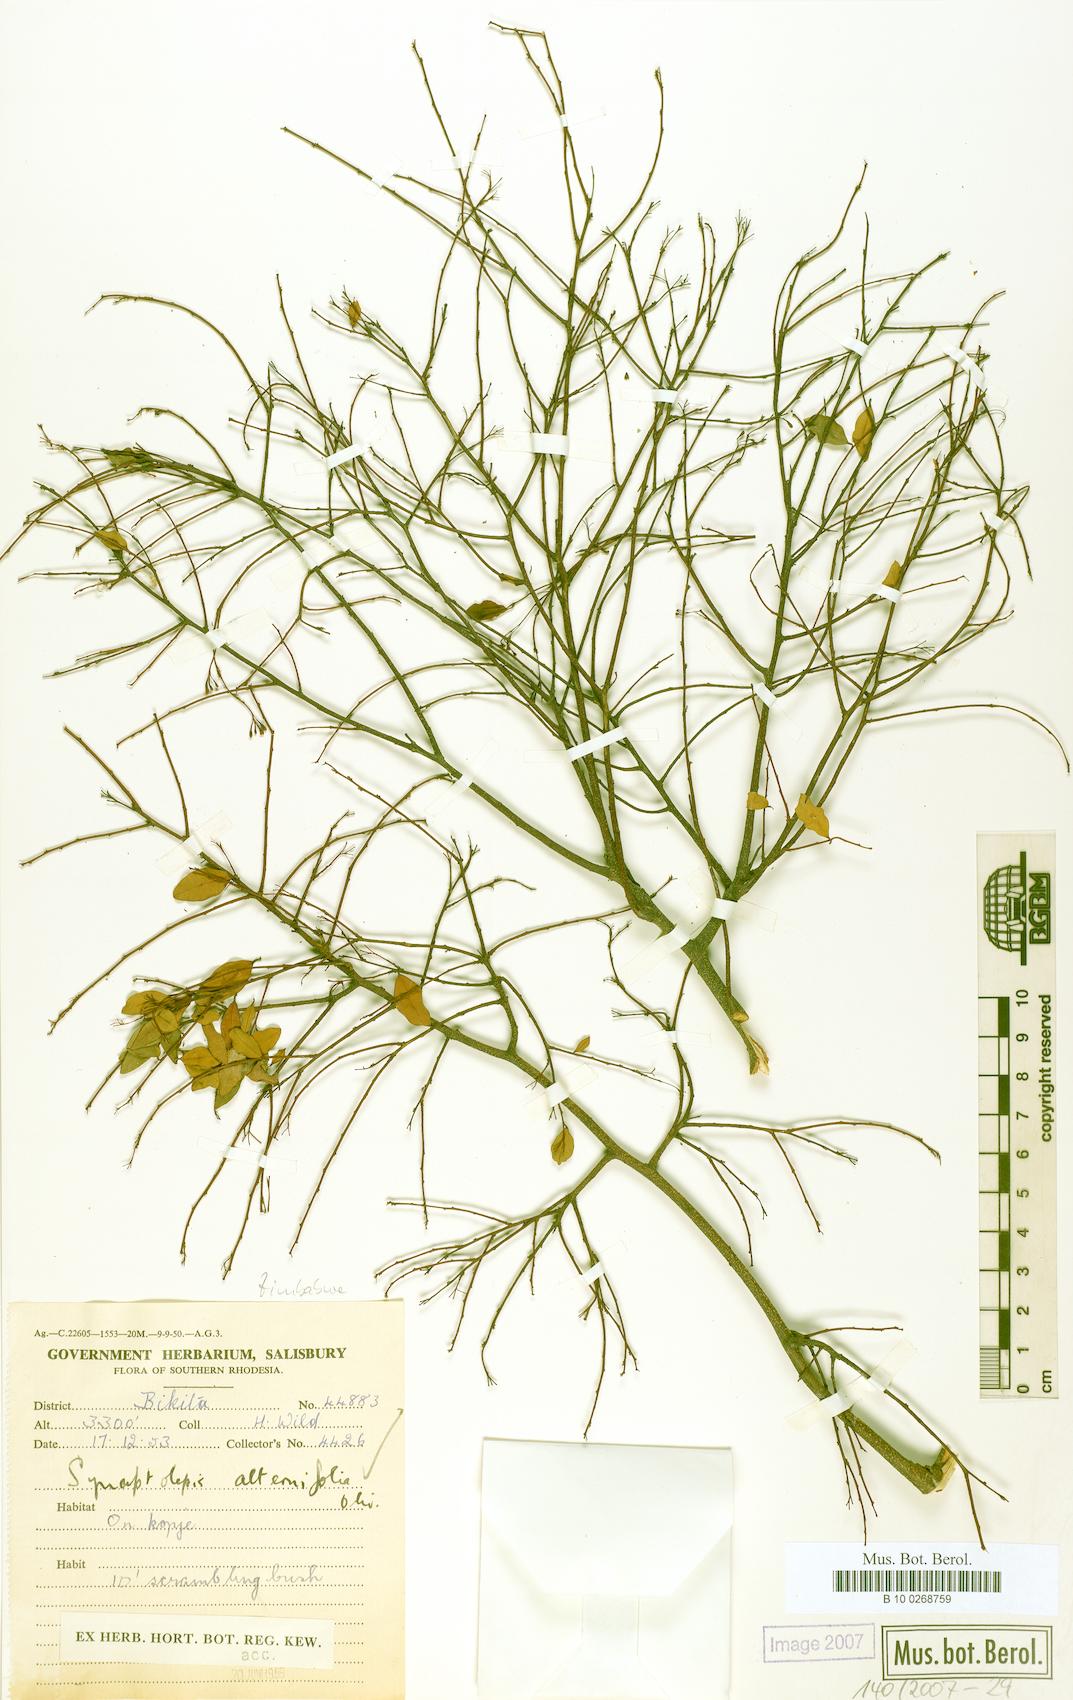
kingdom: Plantae
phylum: Tracheophyta
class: Magnoliopsida
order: Malvales
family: Thymelaeaceae
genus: Synaptolepis
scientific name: Synaptolepis alternifolia
